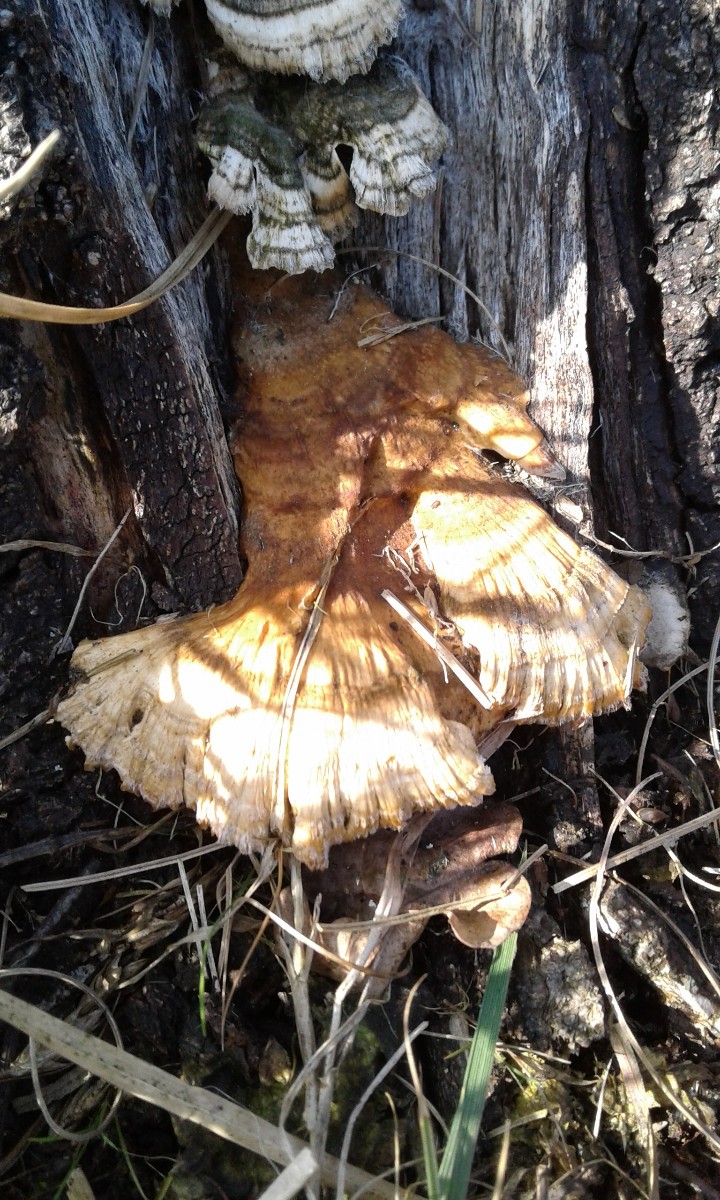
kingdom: Fungi
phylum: Basidiomycota
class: Agaricomycetes
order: Polyporales
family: Polyporaceae
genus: Trametes
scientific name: Trametes ochracea
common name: bæltet læderporesvamp
